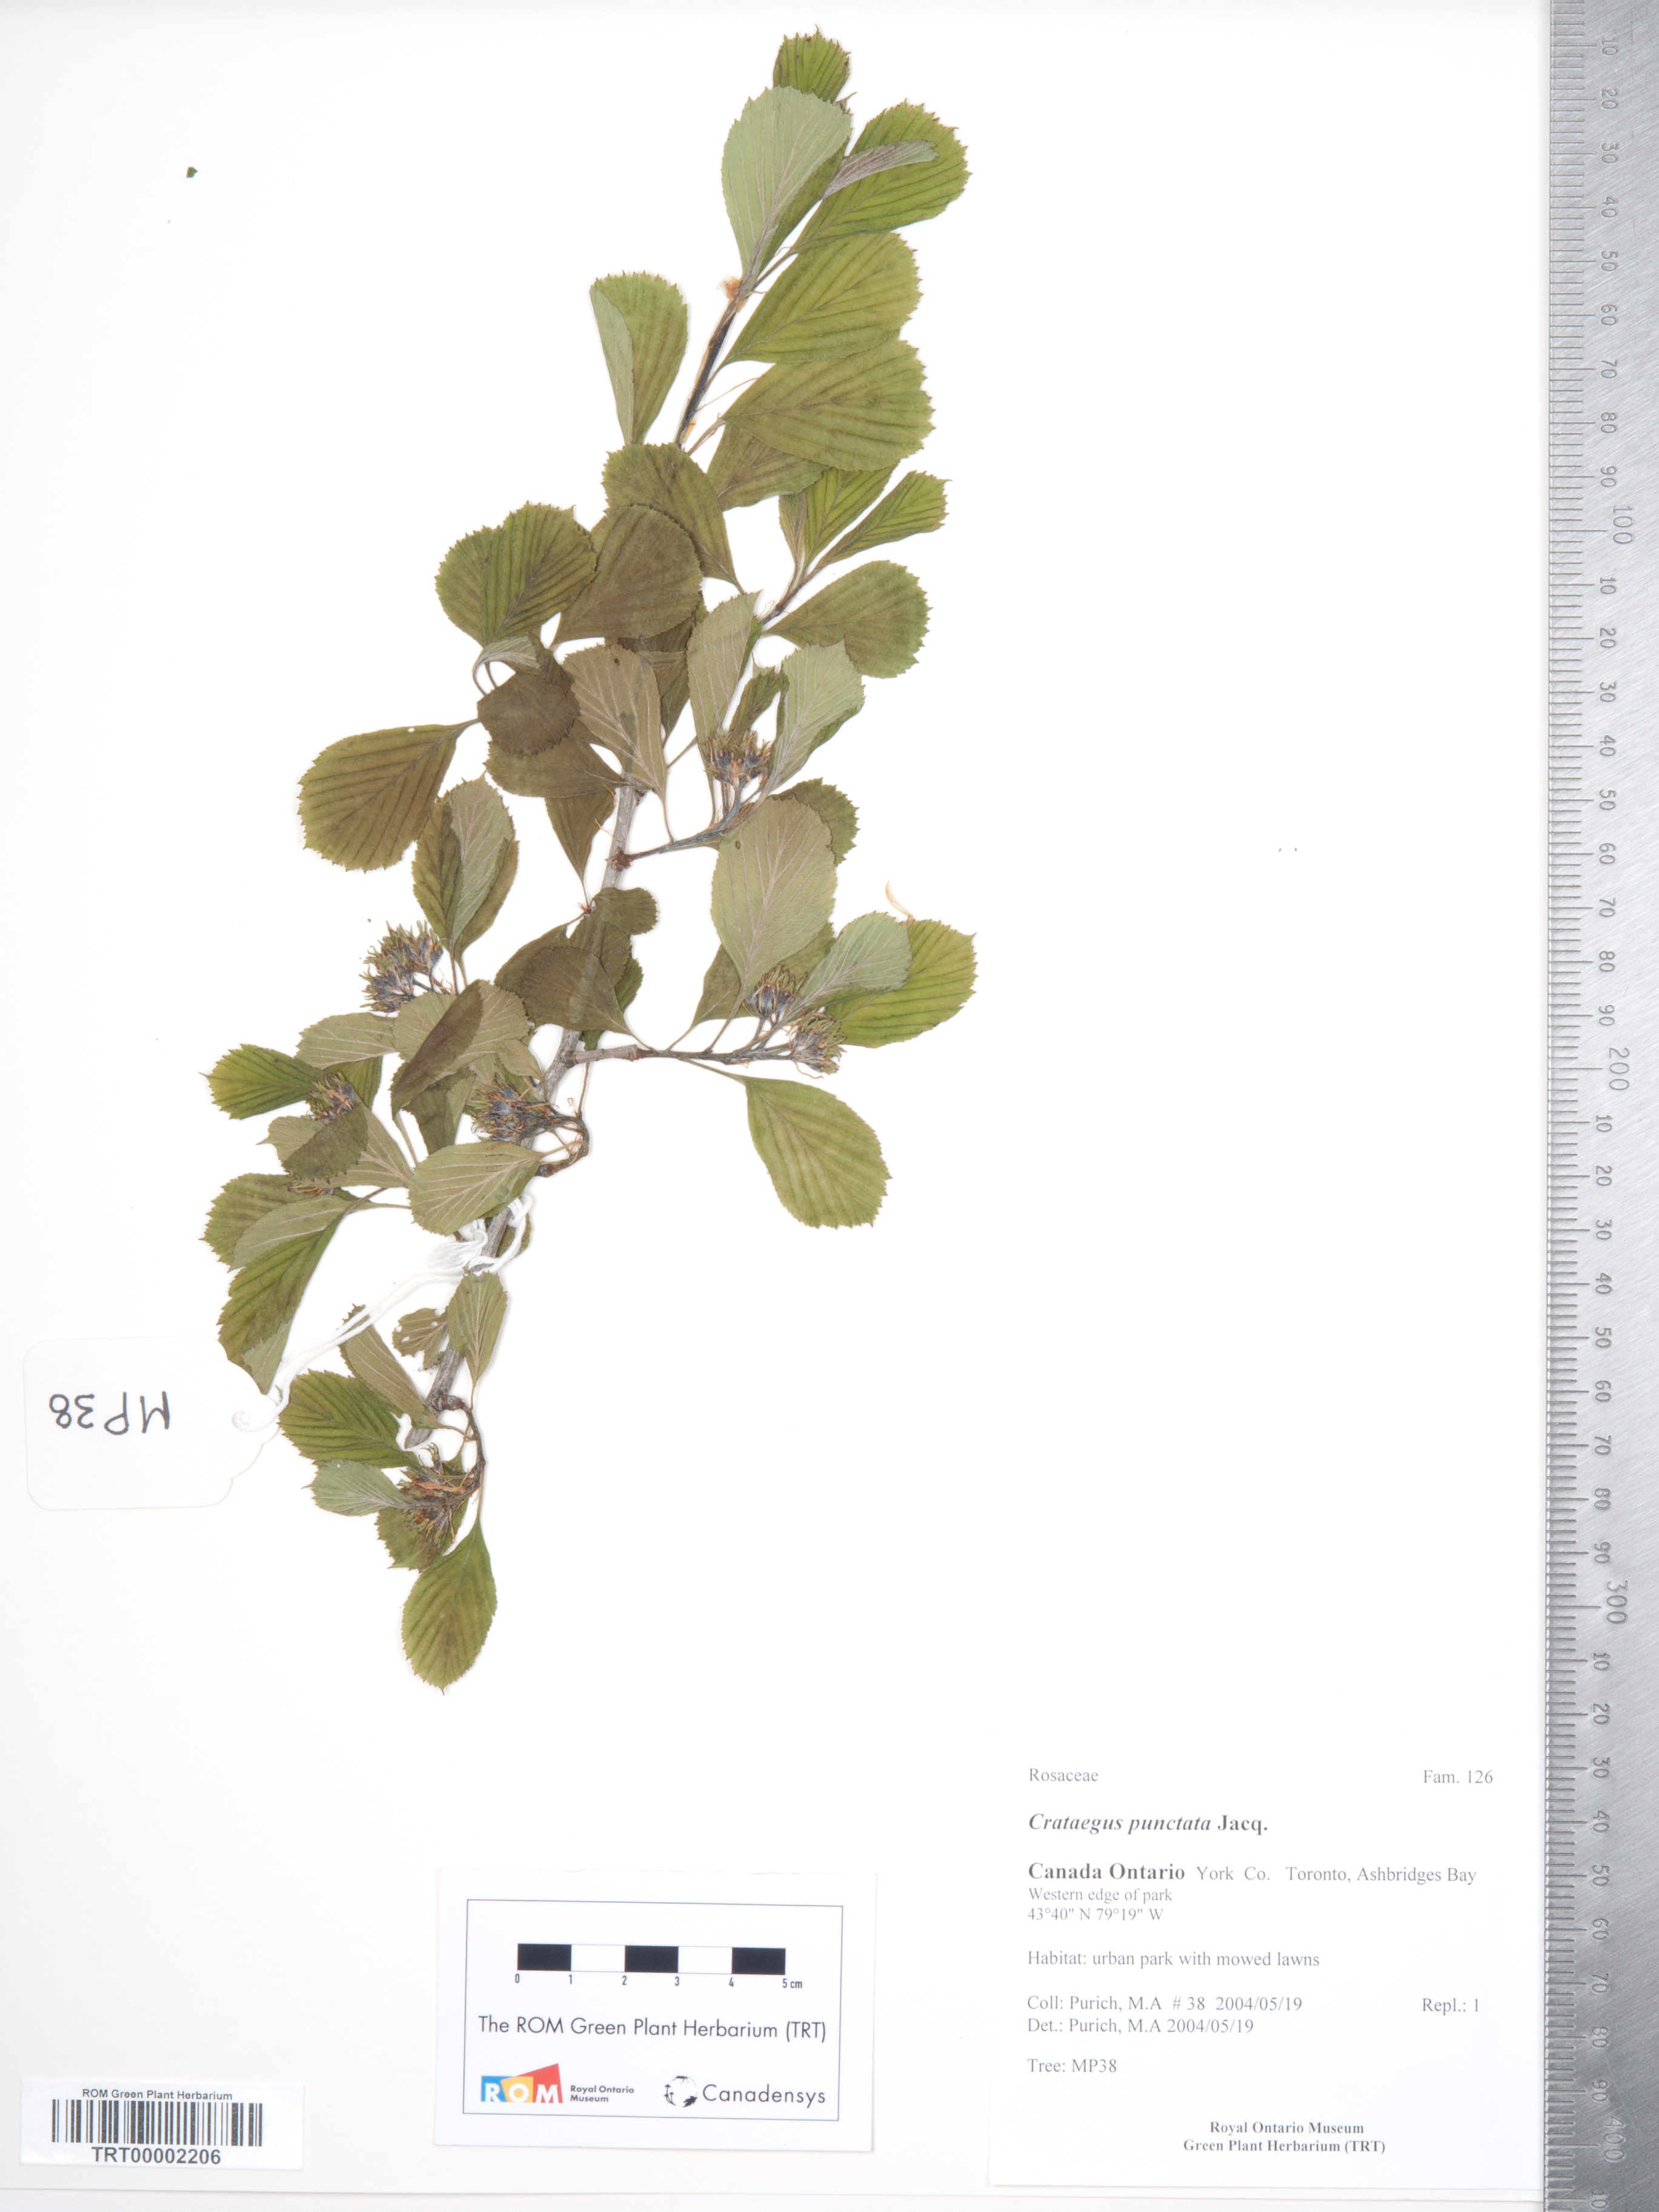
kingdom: Plantae
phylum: Tracheophyta
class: Magnoliopsida
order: Rosales
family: Rosaceae
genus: Crataegus
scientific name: Crataegus punctata
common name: Dotted hawthorn
